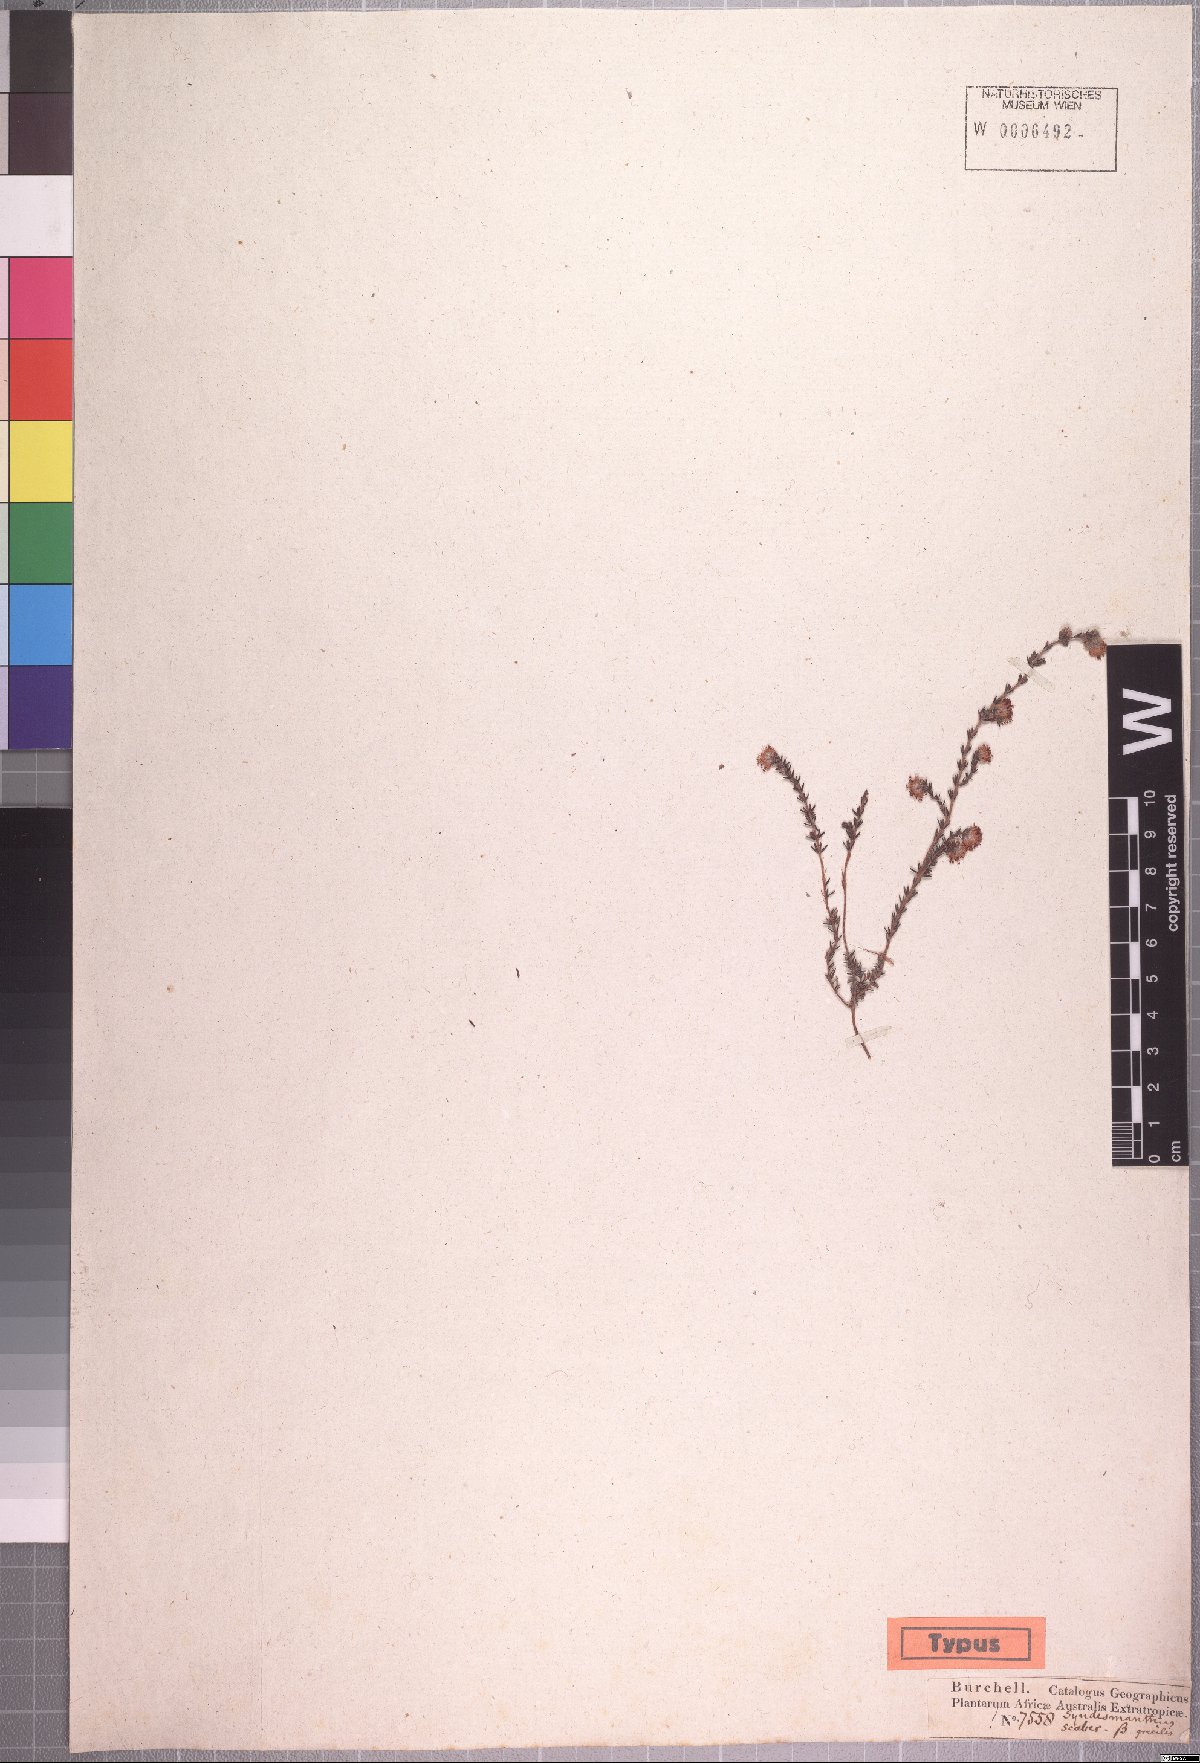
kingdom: Plantae
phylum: Tracheophyta
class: Magnoliopsida
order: Ericales
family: Ericaceae
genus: Erica
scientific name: Erica globiceps
